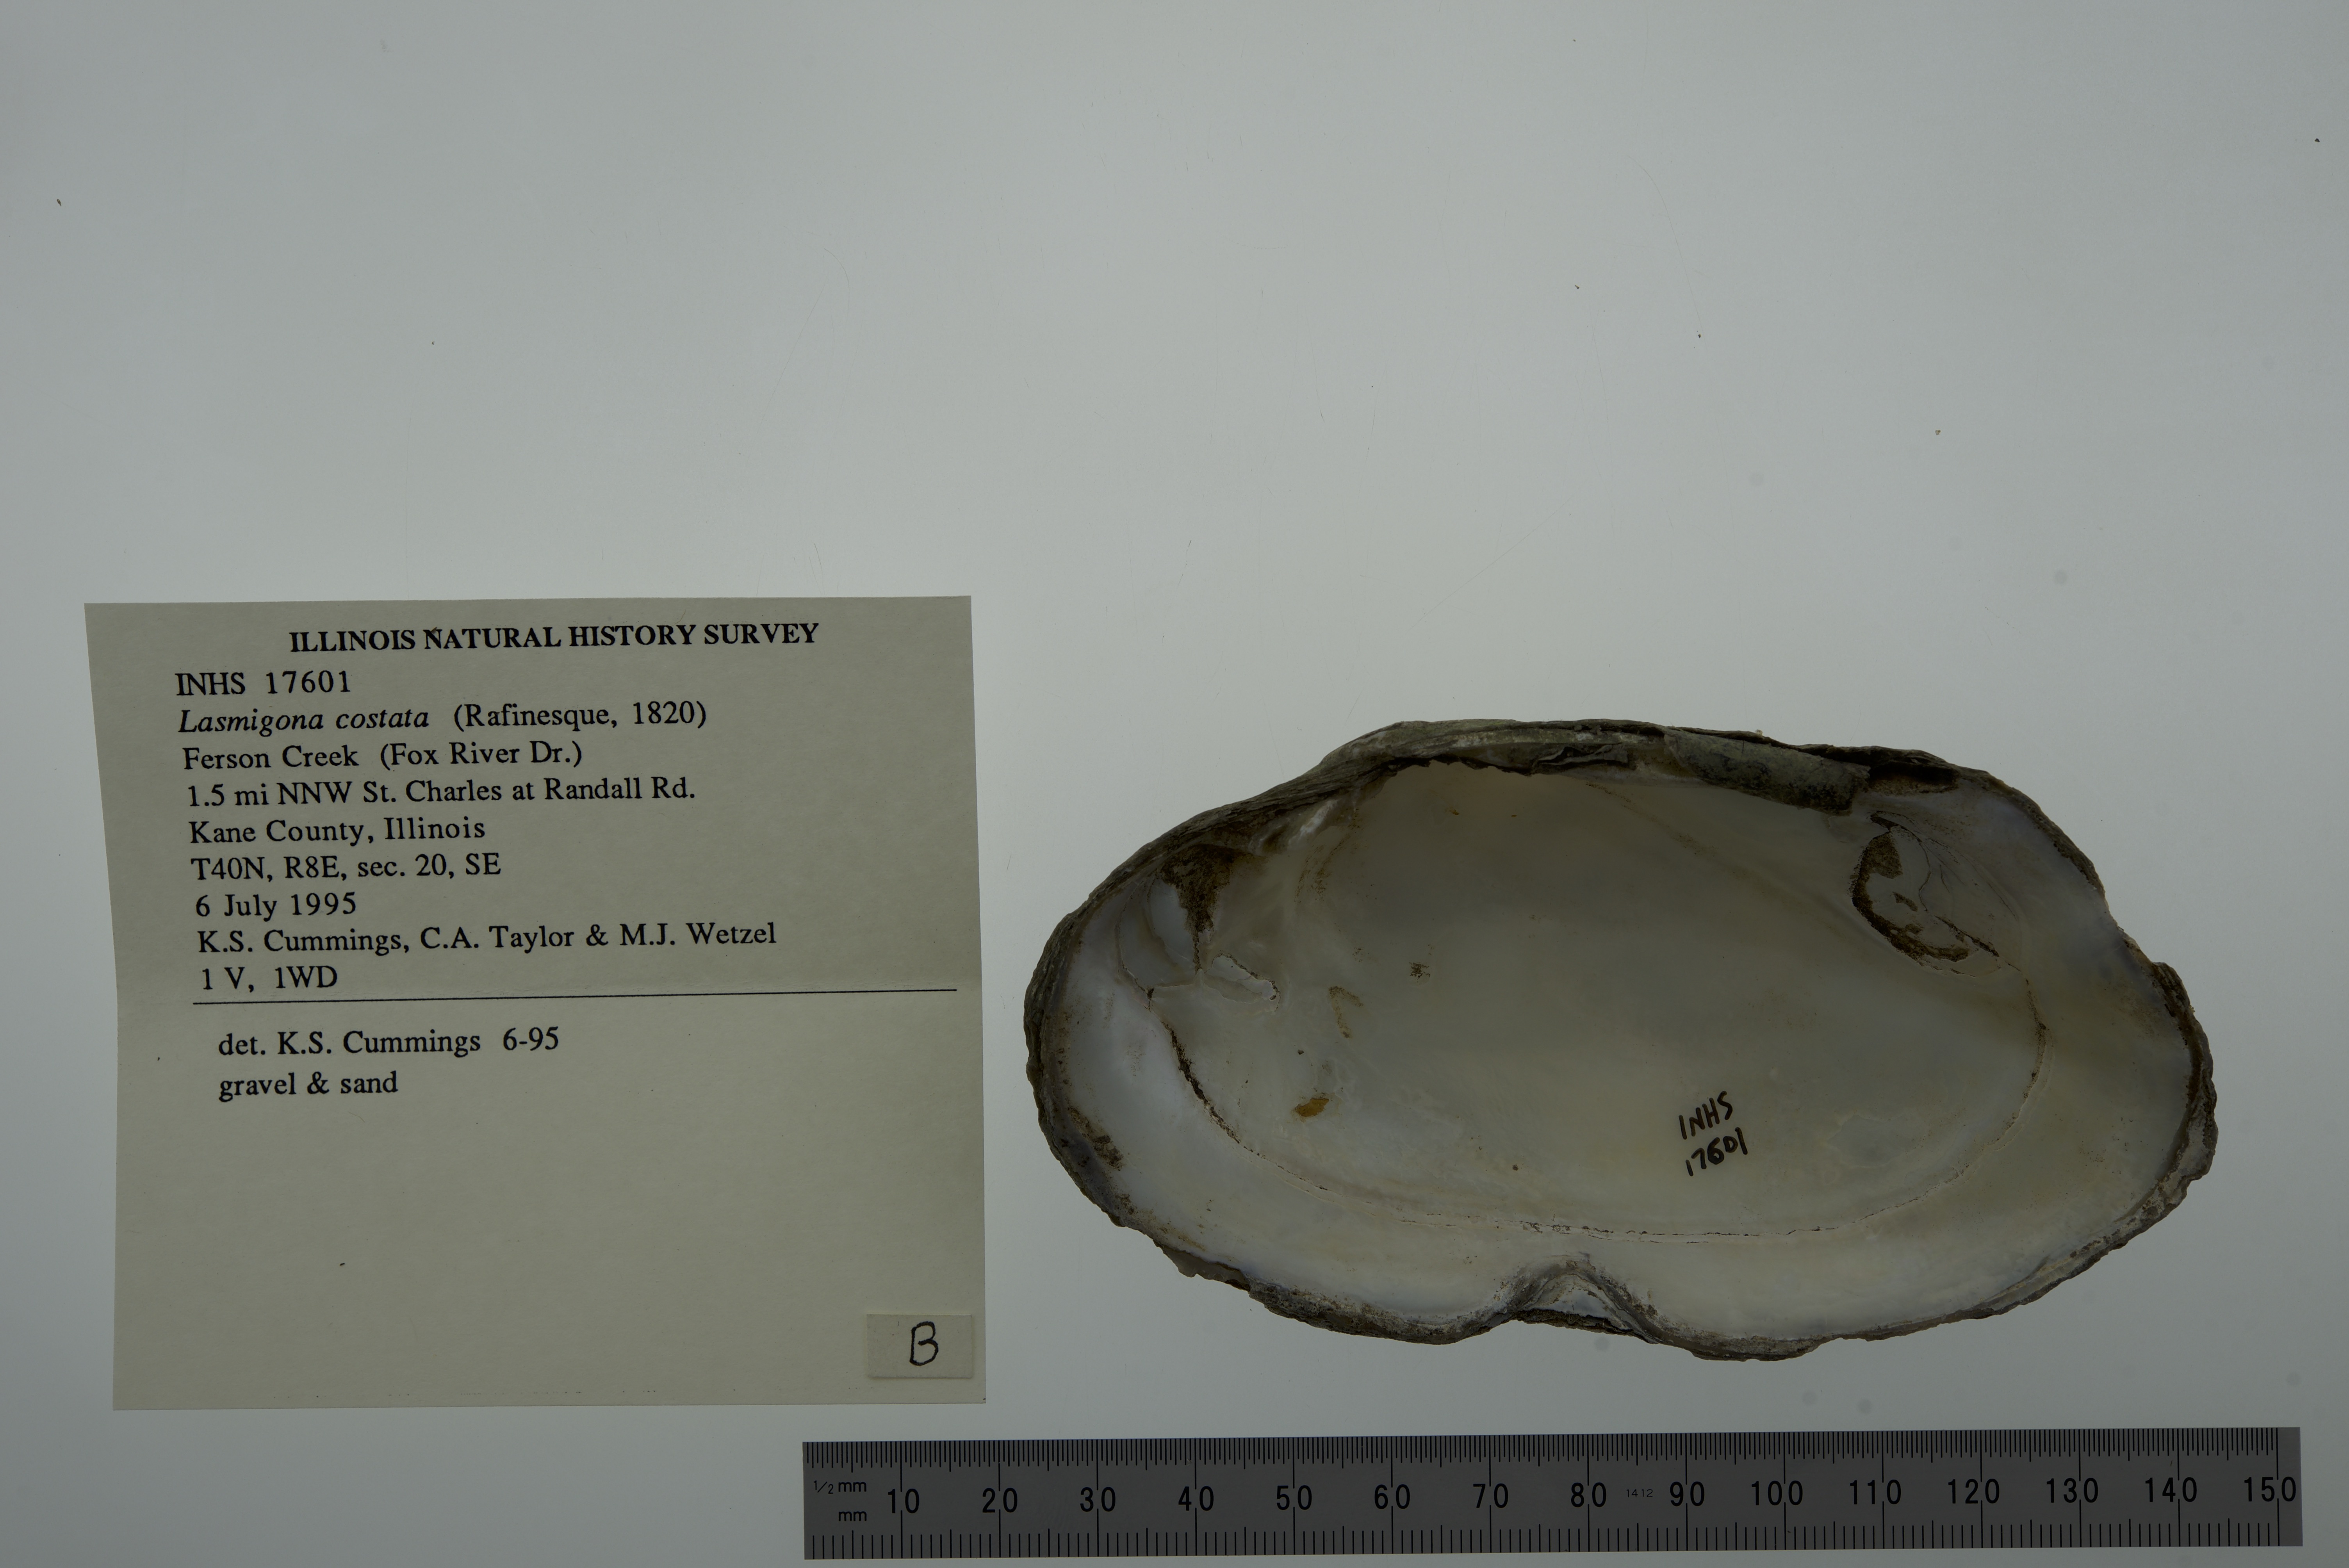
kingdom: Animalia
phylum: Mollusca
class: Bivalvia
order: Unionida
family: Unionidae
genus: Lasmigona
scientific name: Lasmigona costata
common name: Flutedshell
